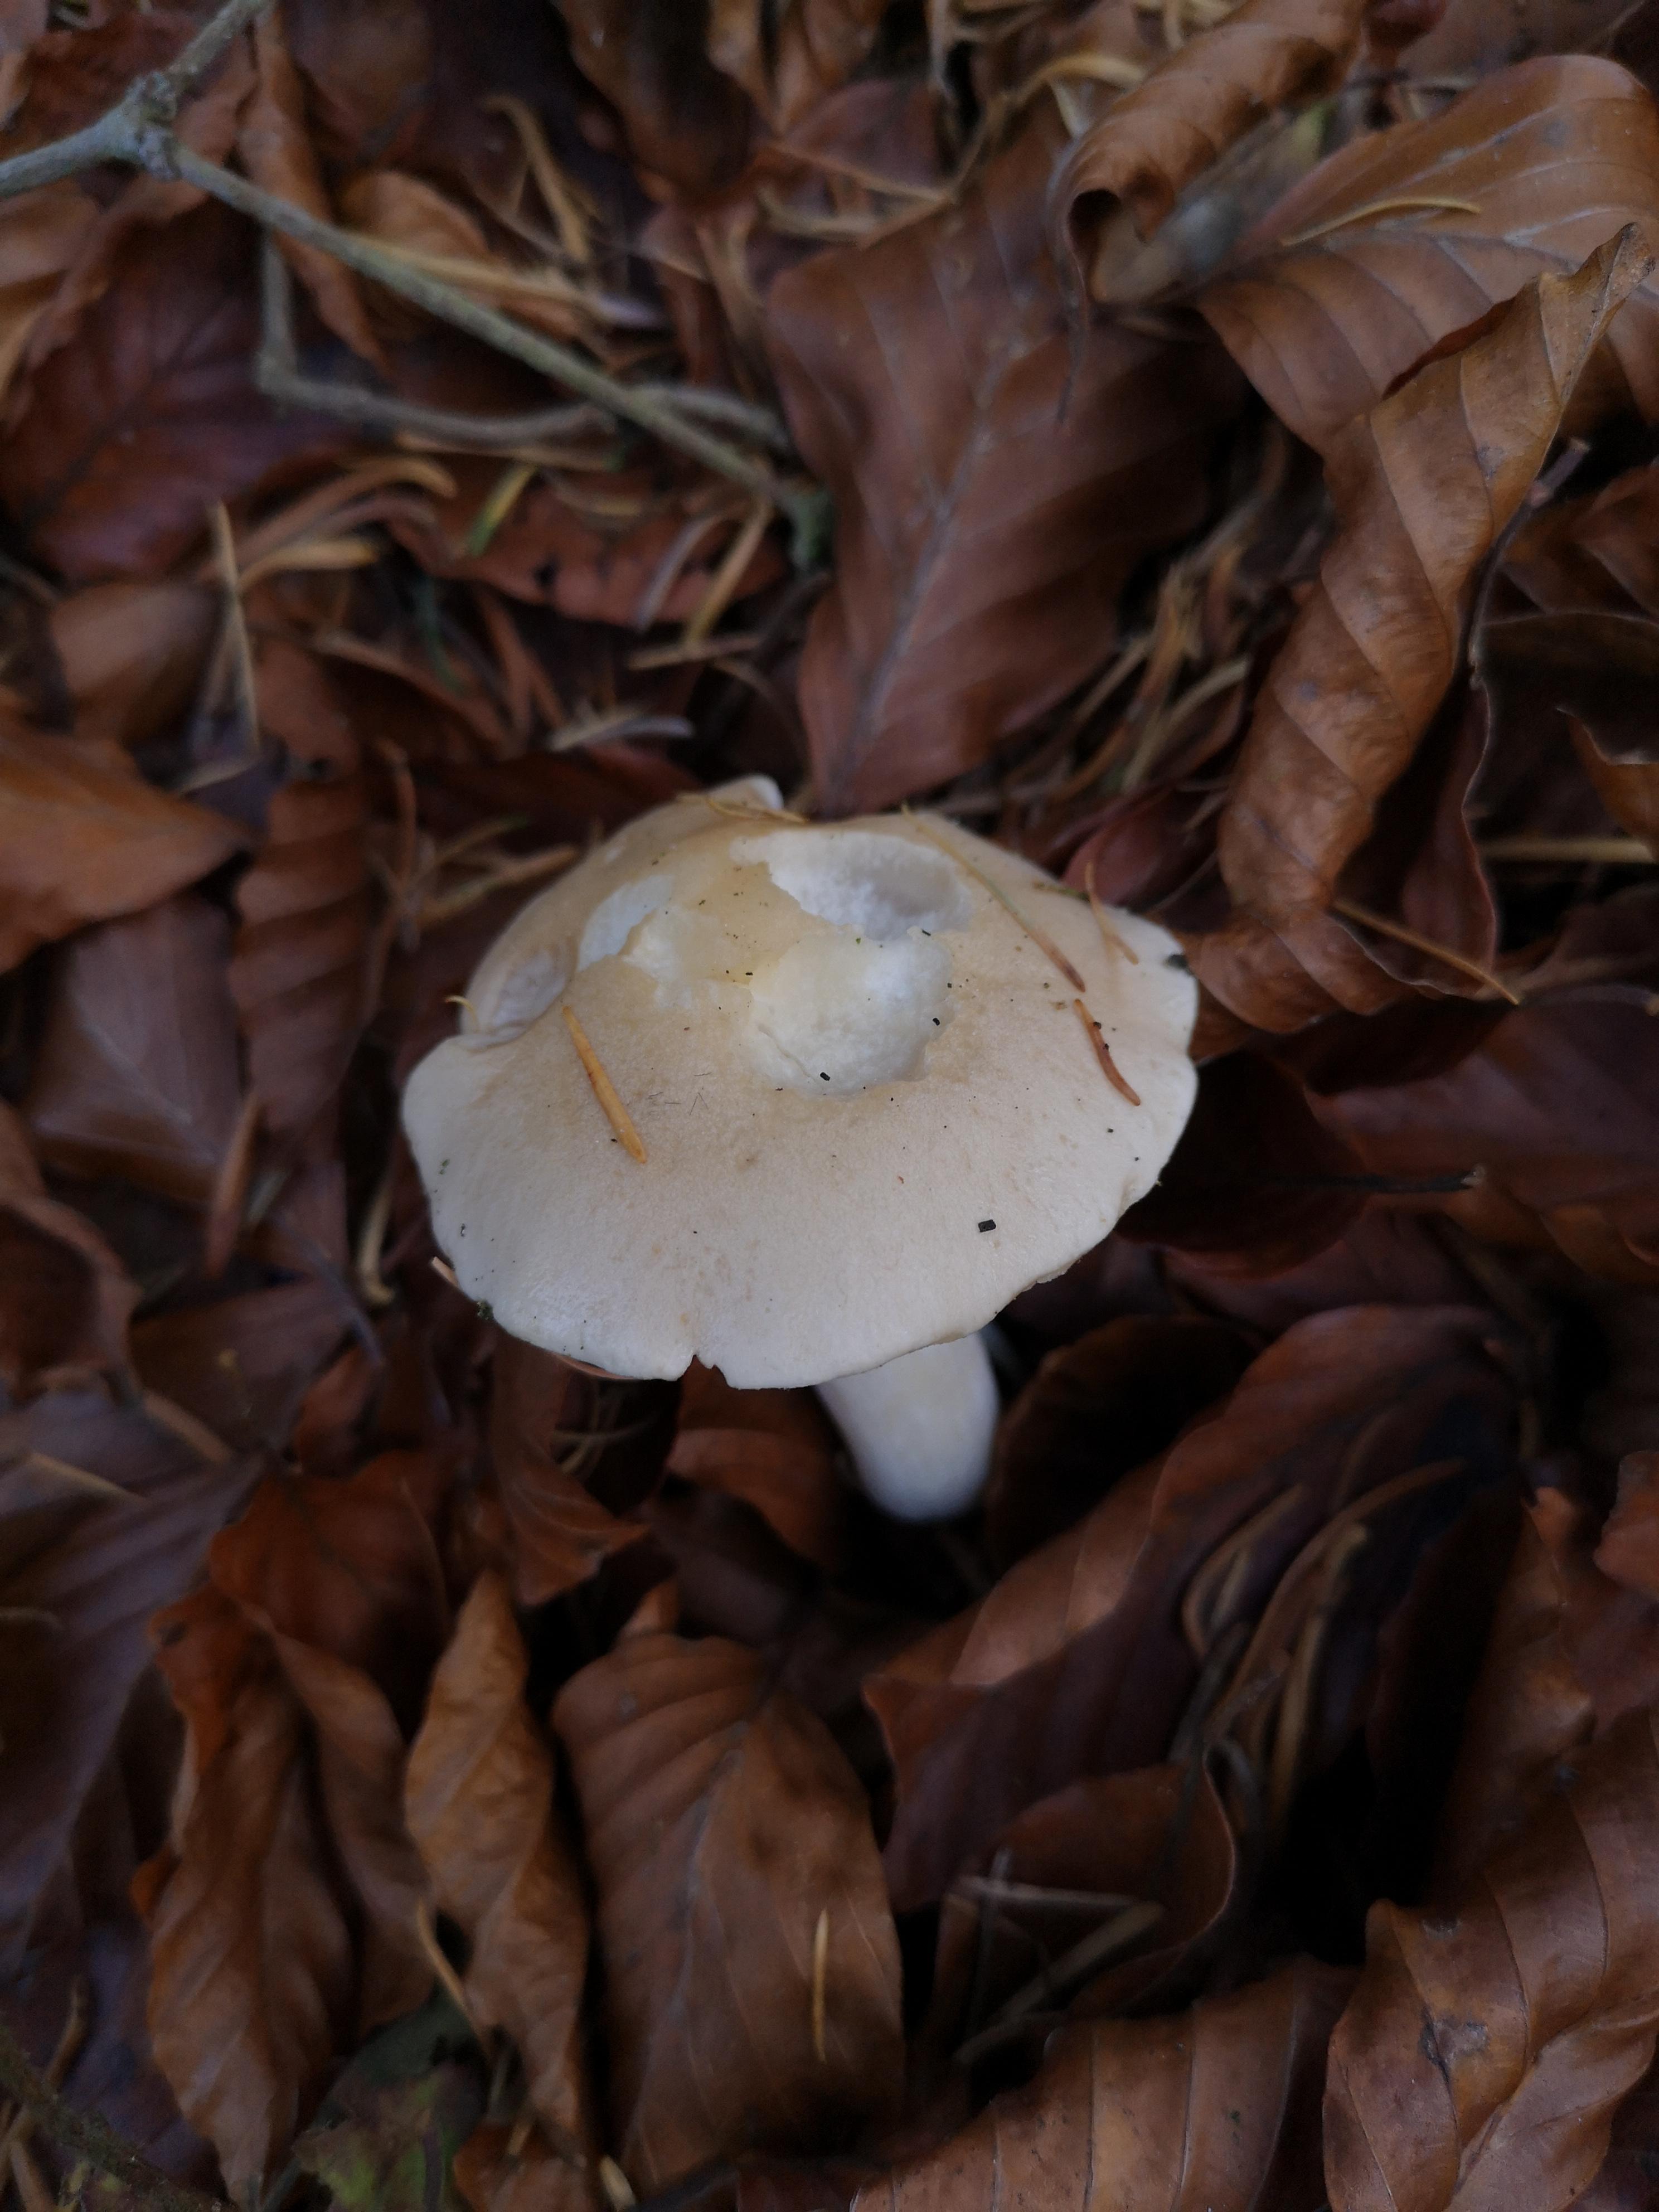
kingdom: Fungi
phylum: Basidiomycota
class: Agaricomycetes
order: Agaricales
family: Hymenogastraceae
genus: Hebeloma
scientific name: Hebeloma
